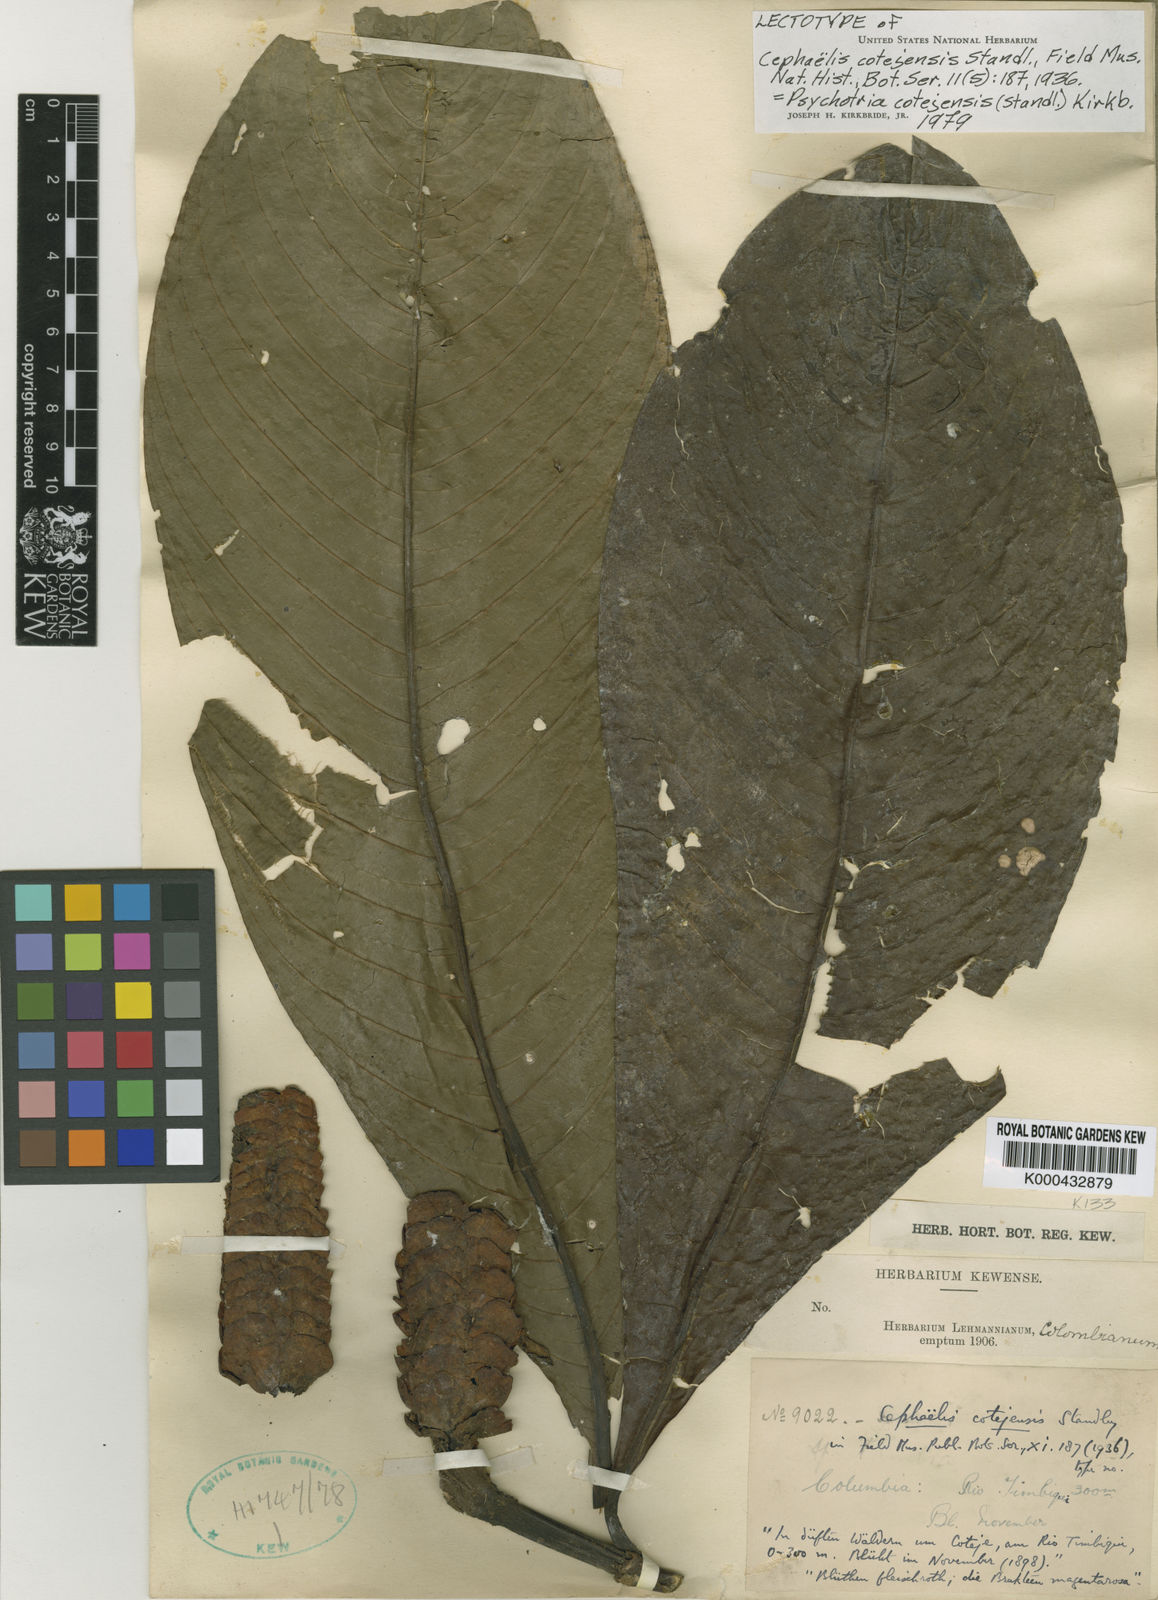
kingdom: Plantae
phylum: Tracheophyta
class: Magnoliopsida
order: Gentianales
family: Rubiaceae
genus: Palicourea
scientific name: Palicourea cotejensis
